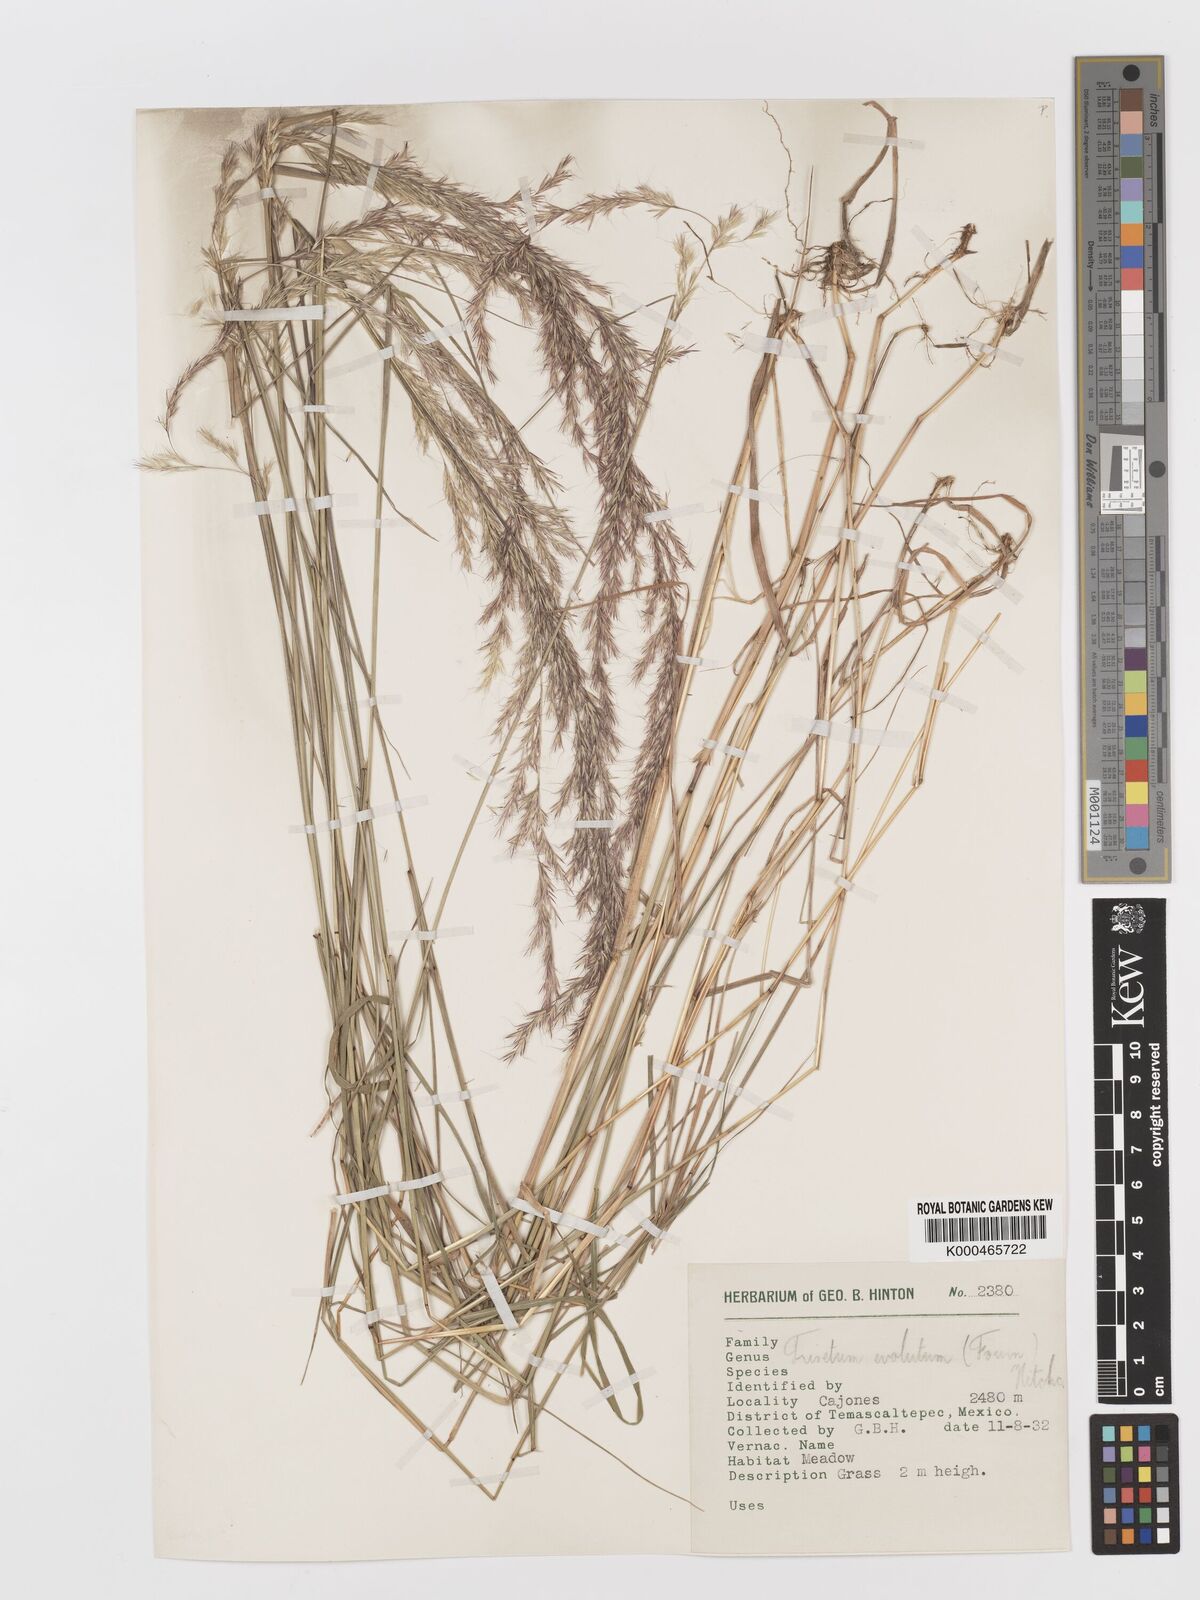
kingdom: Plantae
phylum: Tracheophyta
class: Liliopsida
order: Poales
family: Poaceae
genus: Peyritschia
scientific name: Peyritschia deyeuxioides
